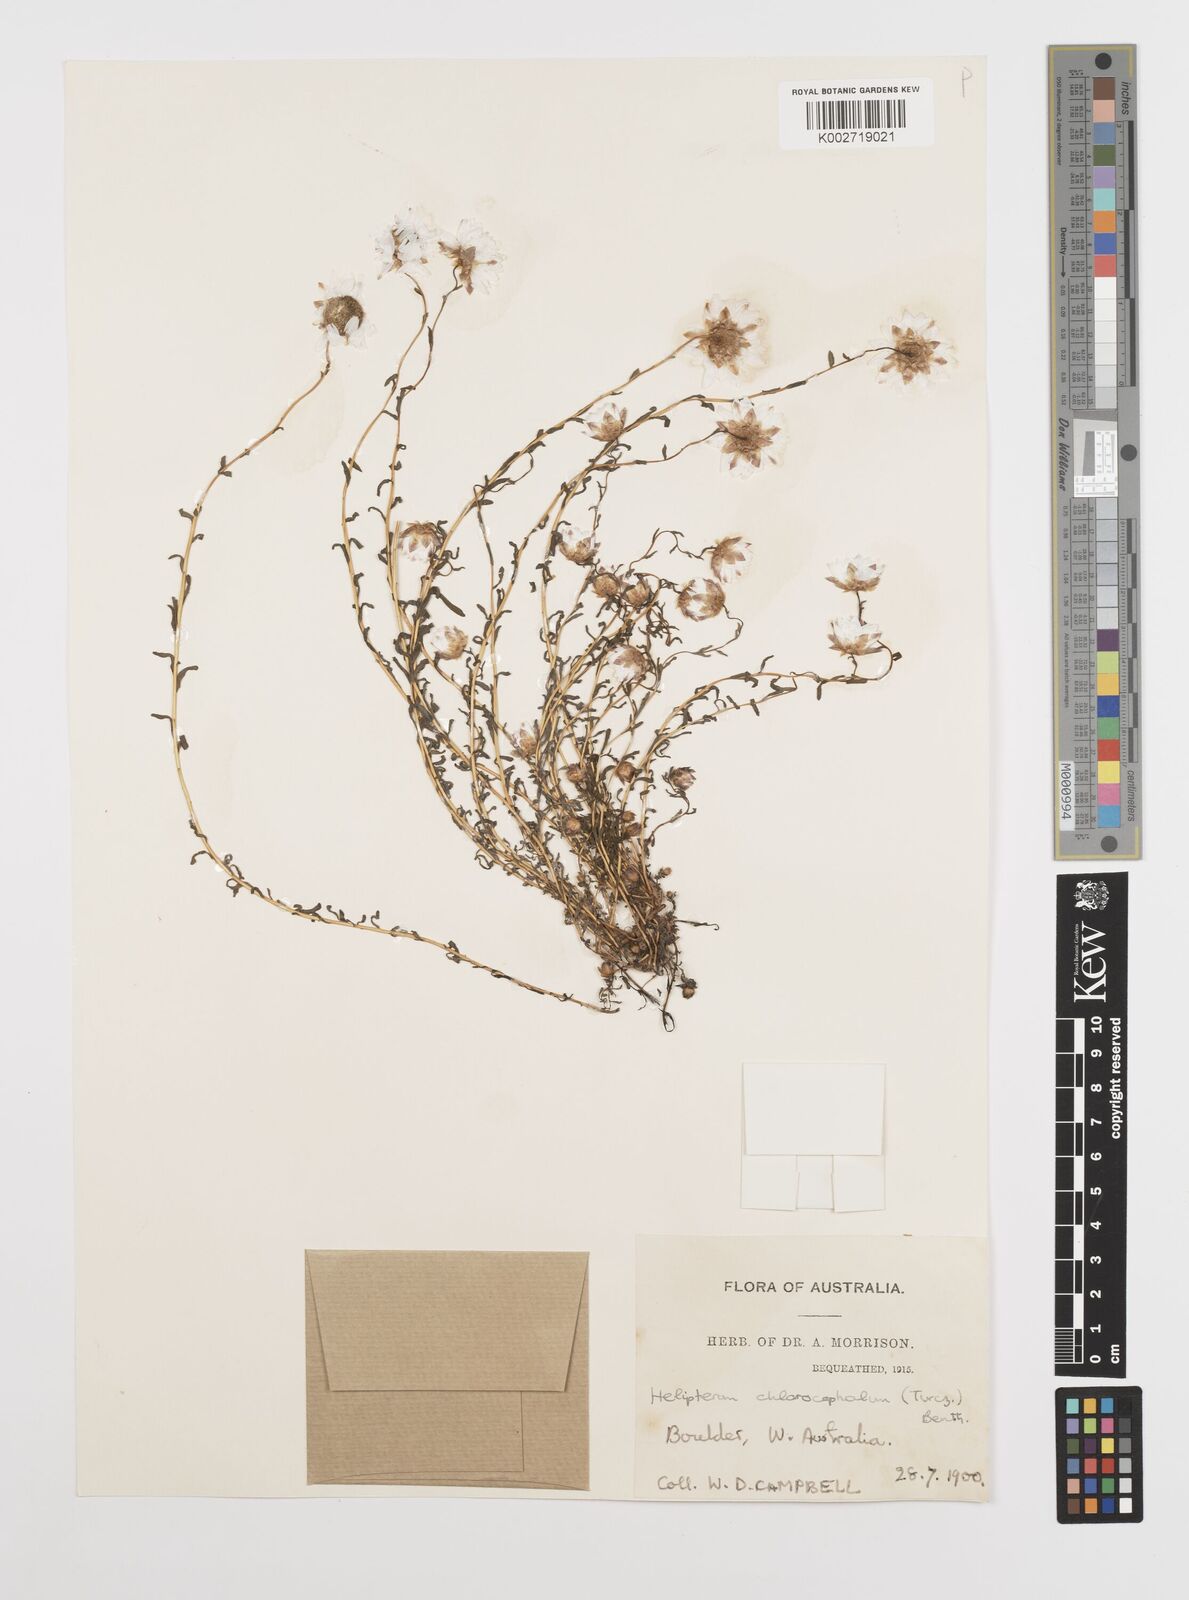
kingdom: Plantae
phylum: Tracheophyta
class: Magnoliopsida
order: Asterales
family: Asteraceae
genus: Rhodanthe
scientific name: Rhodanthe chlorocephala
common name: Rosy sunray
